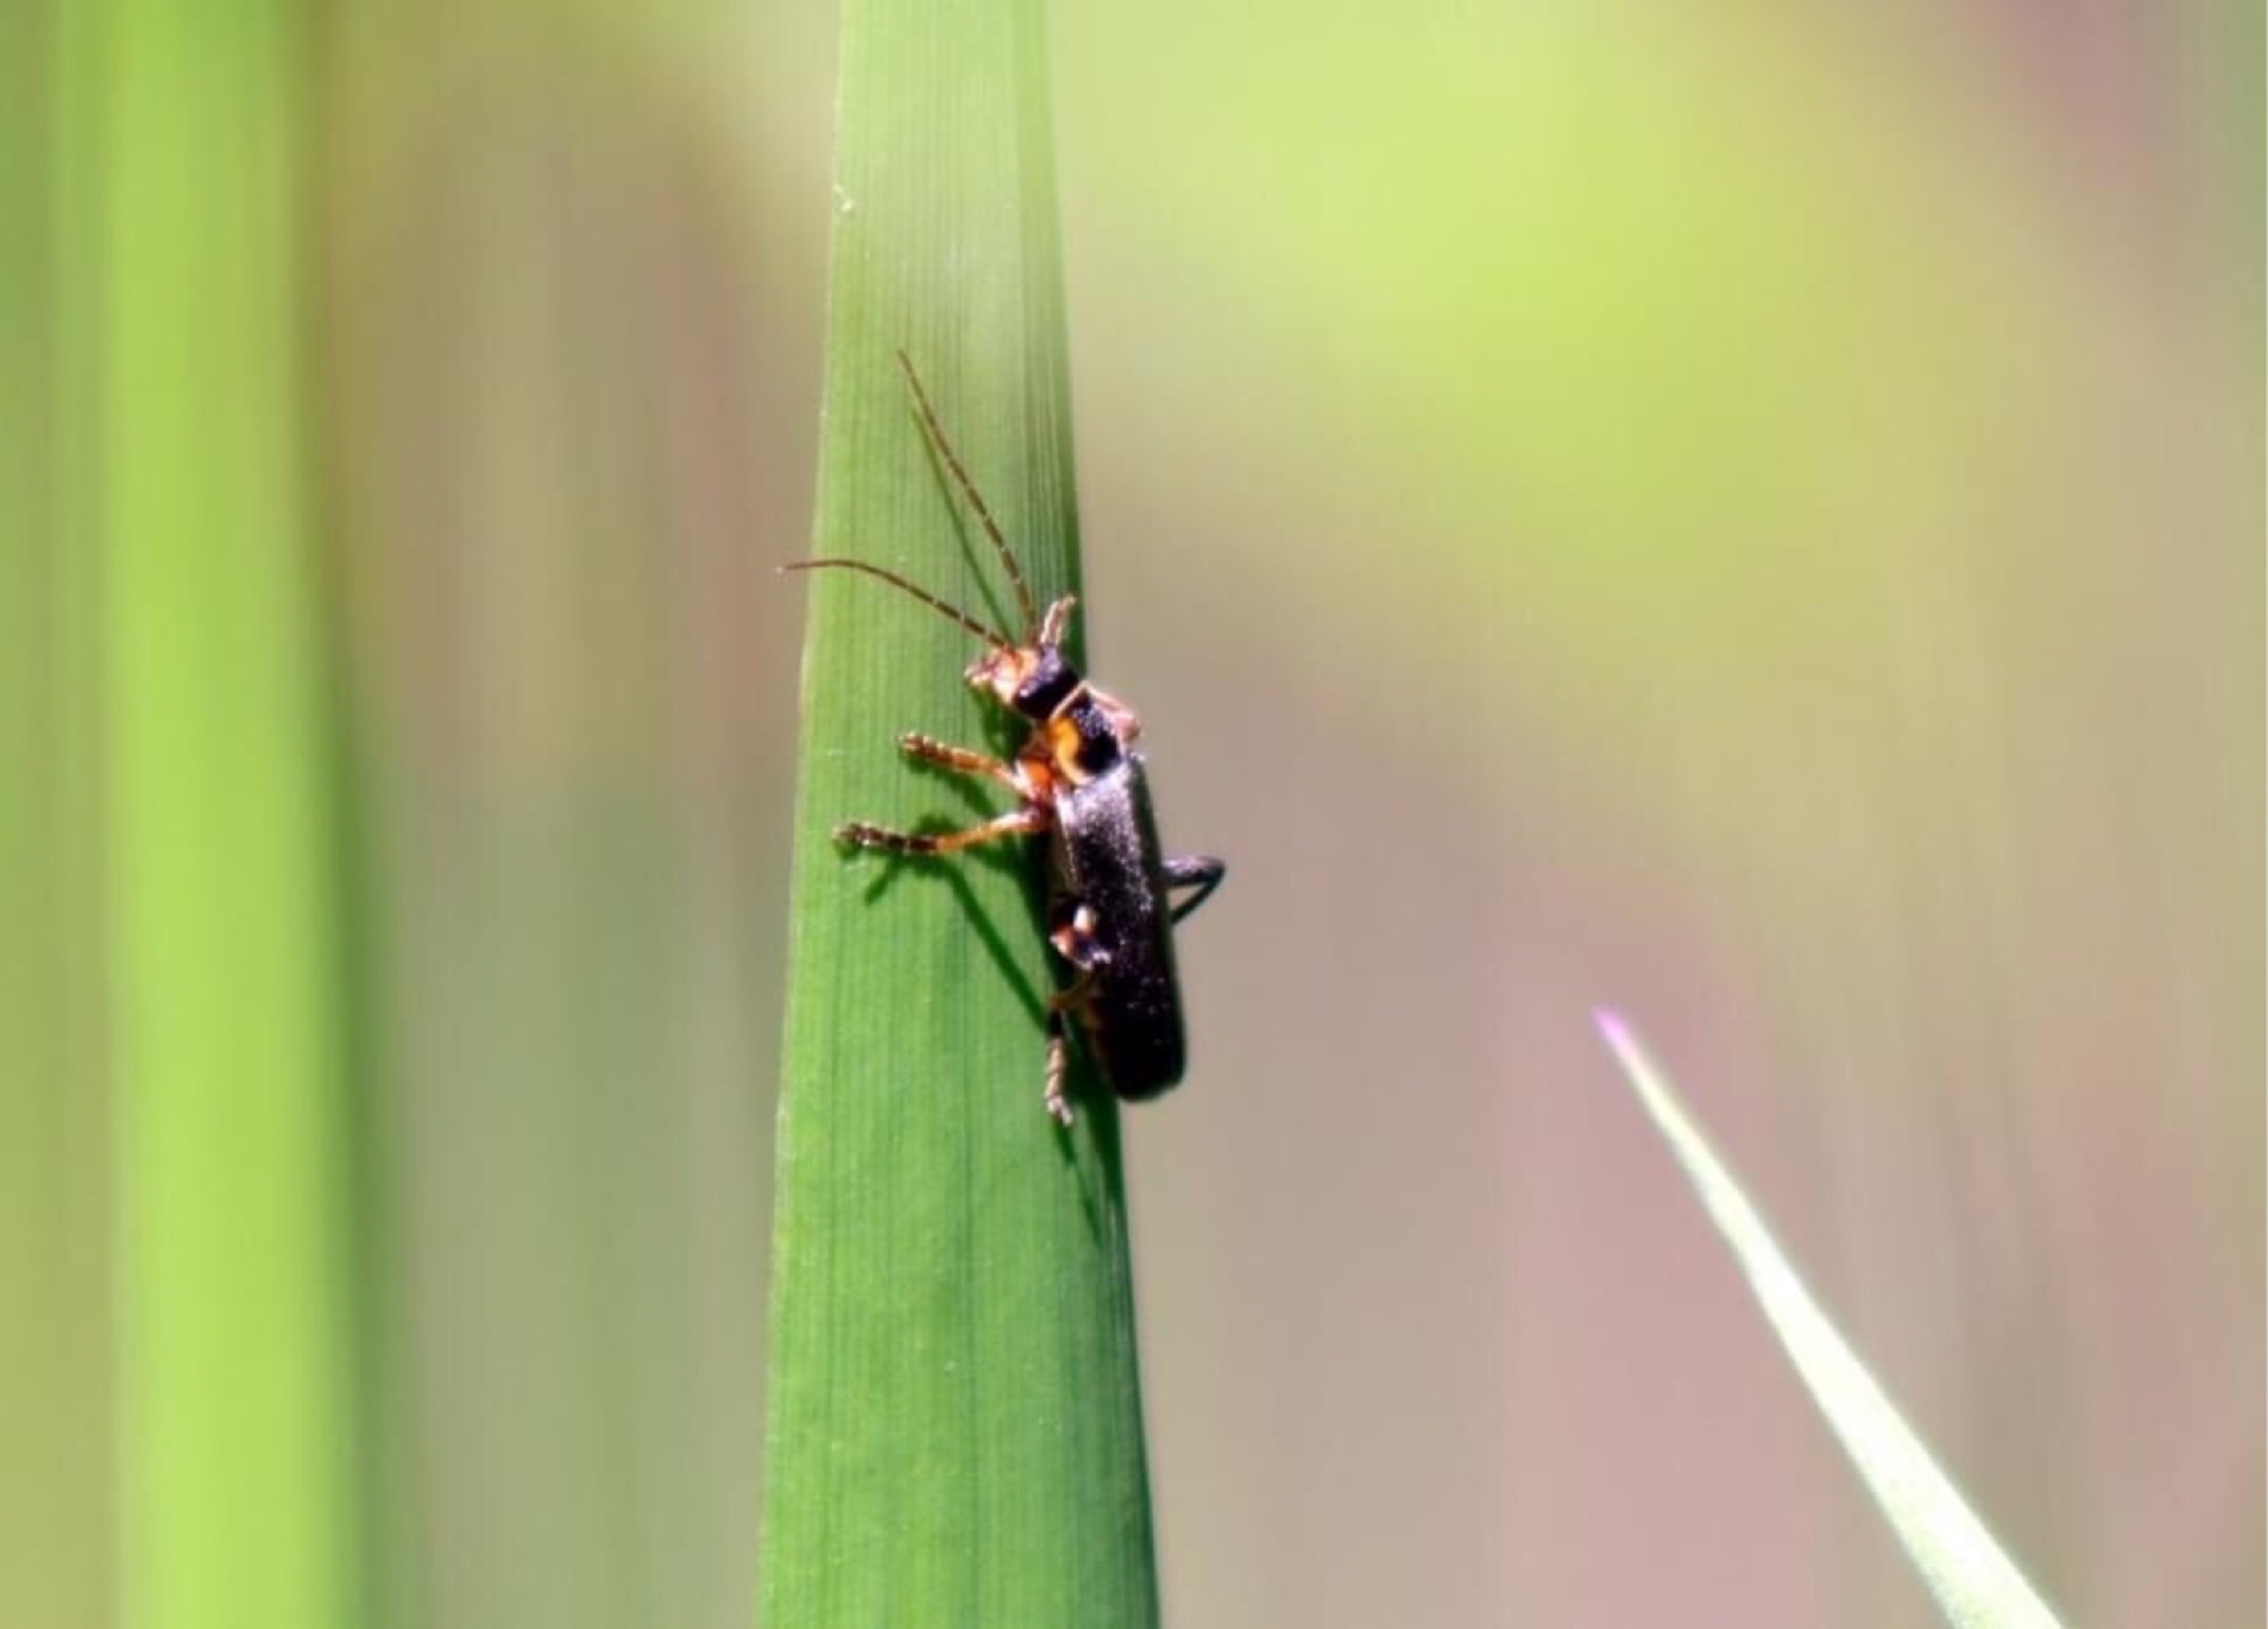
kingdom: Animalia
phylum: Arthropoda
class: Insecta
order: Coleoptera
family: Cantharidae
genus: Cantharis
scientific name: Cantharis nigricans
